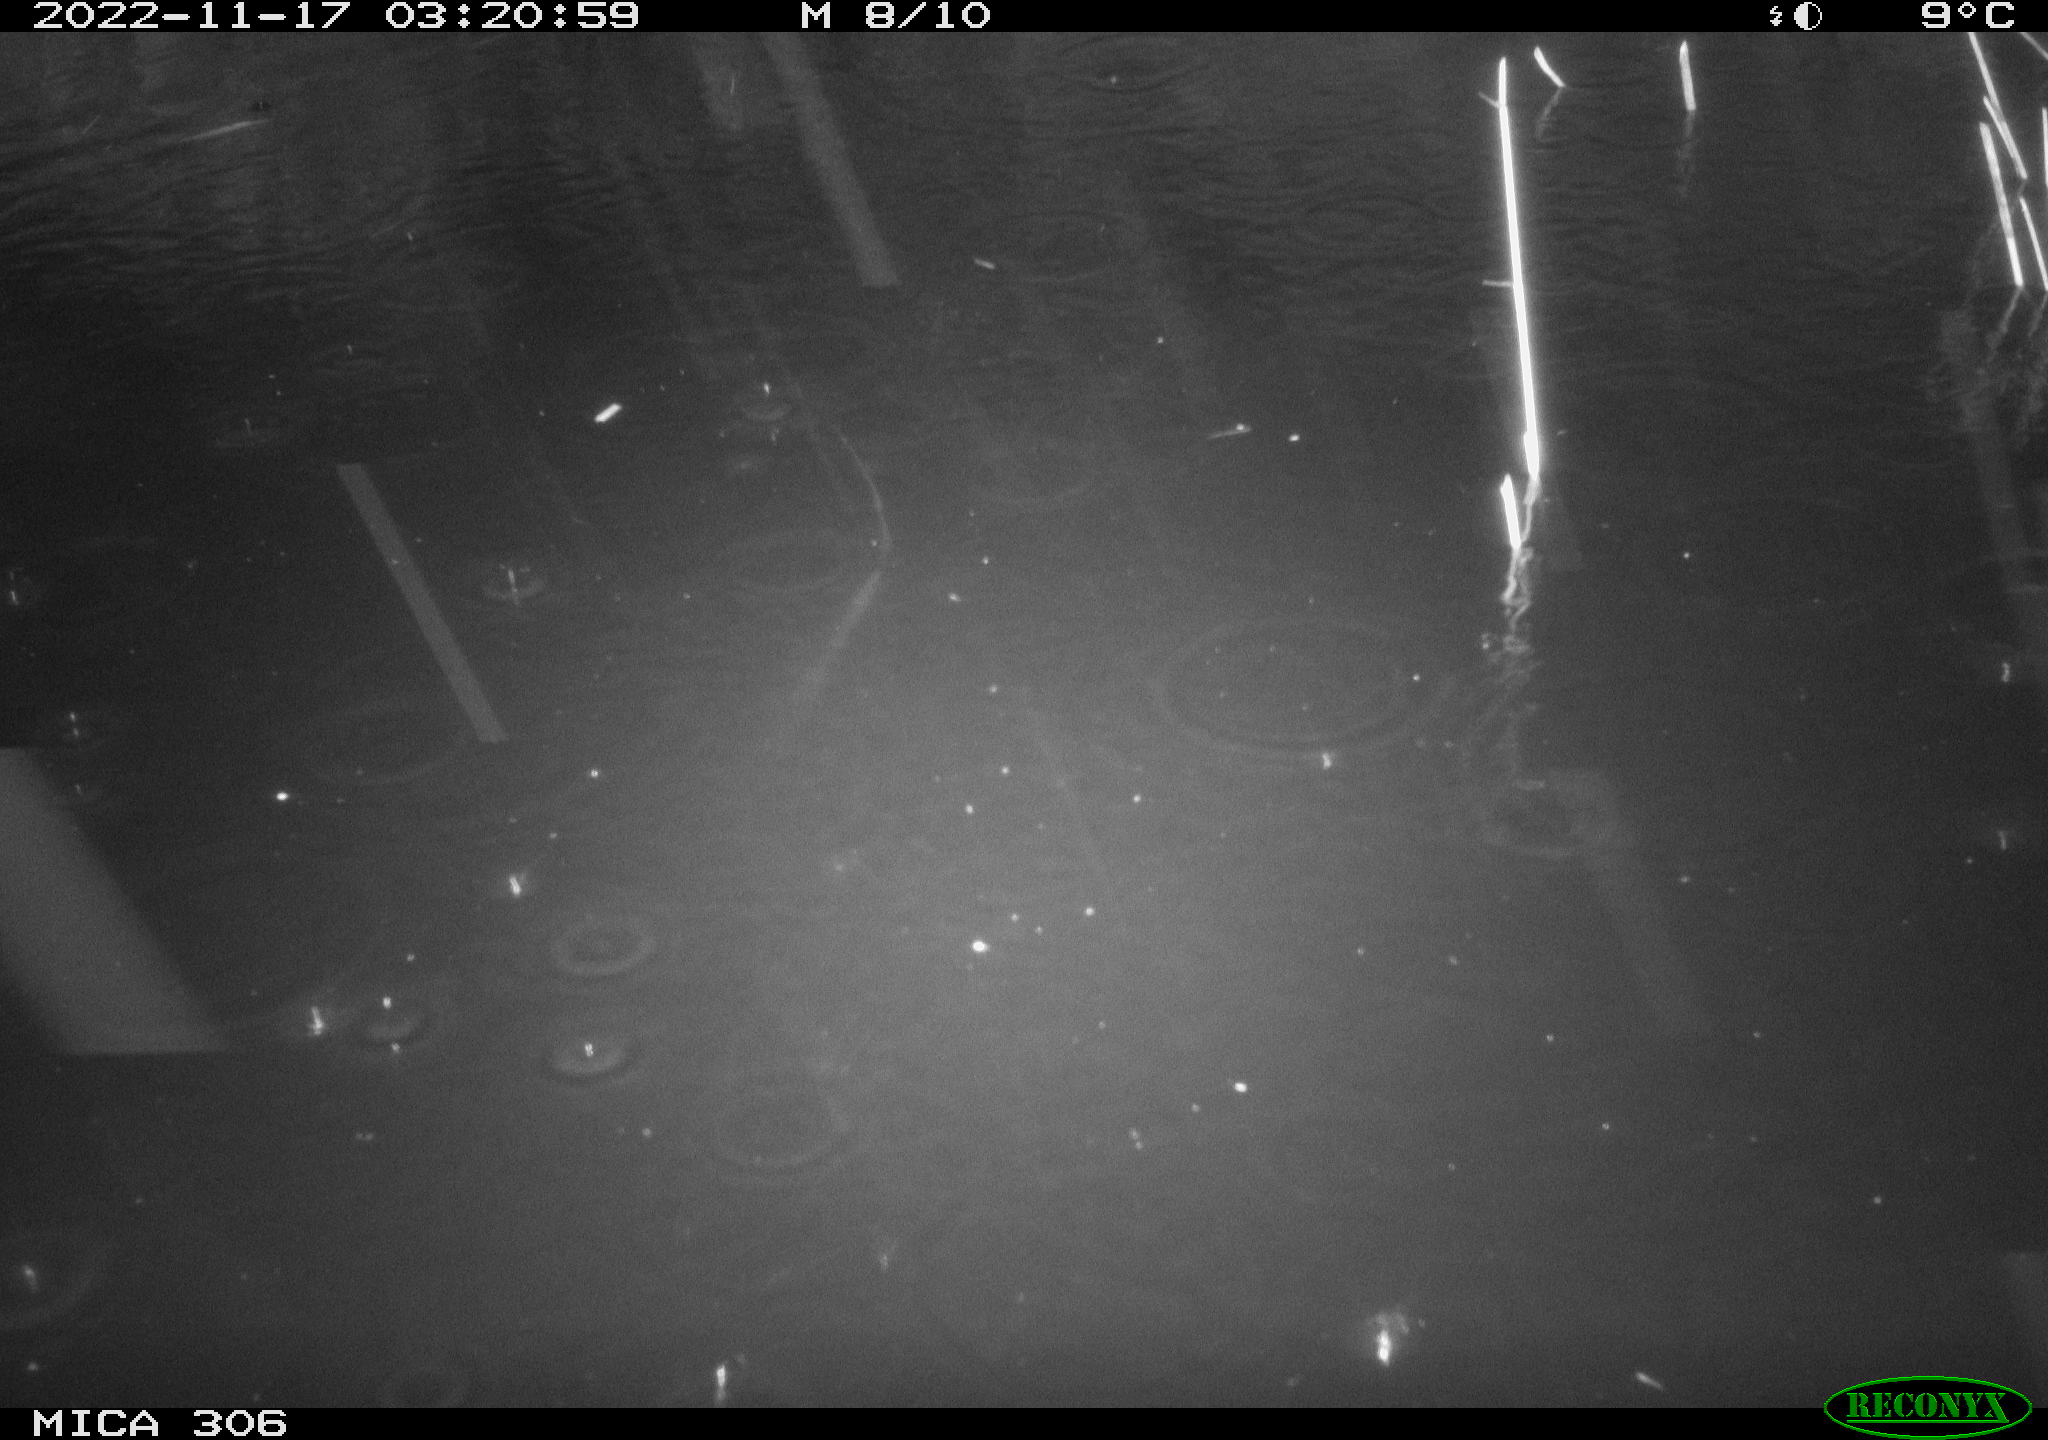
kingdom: Animalia
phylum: Chordata
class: Mammalia
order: Rodentia
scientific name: Rodentia
